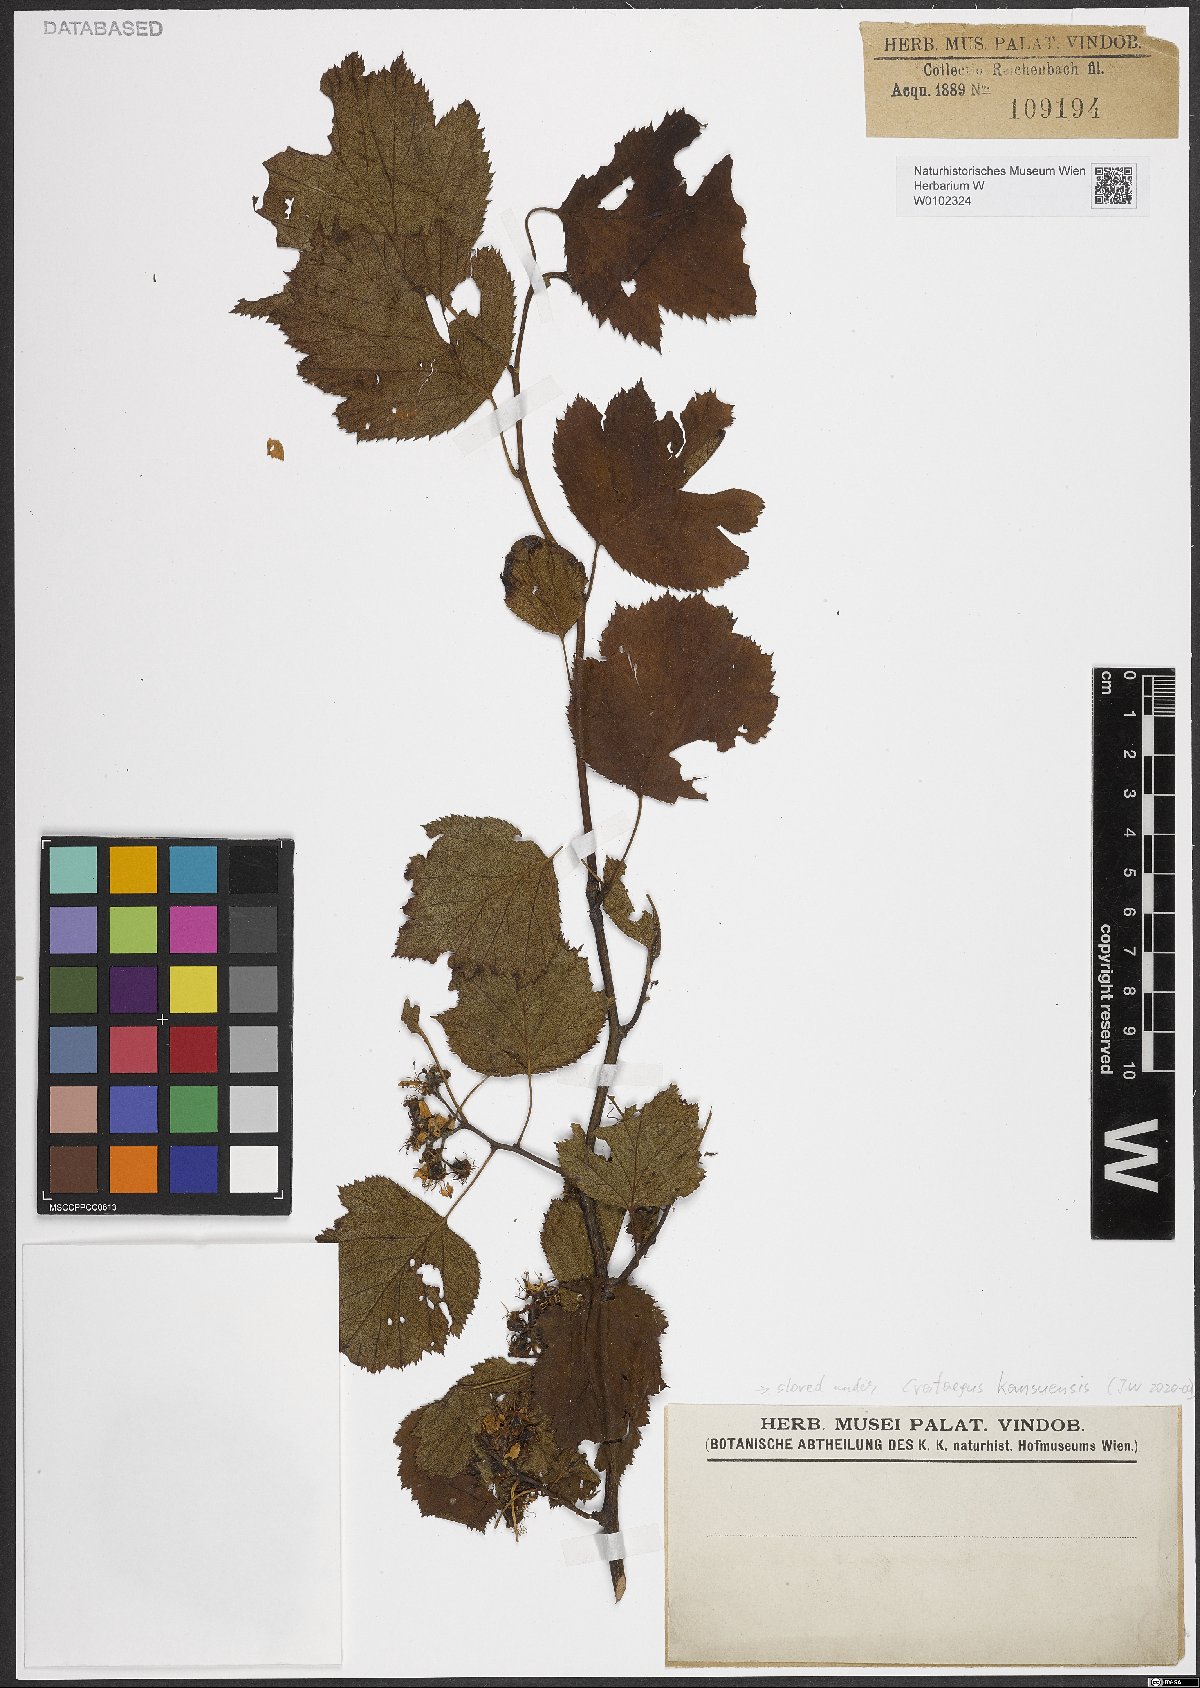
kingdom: Plantae
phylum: Tracheophyta
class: Magnoliopsida
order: Rosales
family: Rosaceae
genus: Crataegus
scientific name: Crataegus kansuensis
